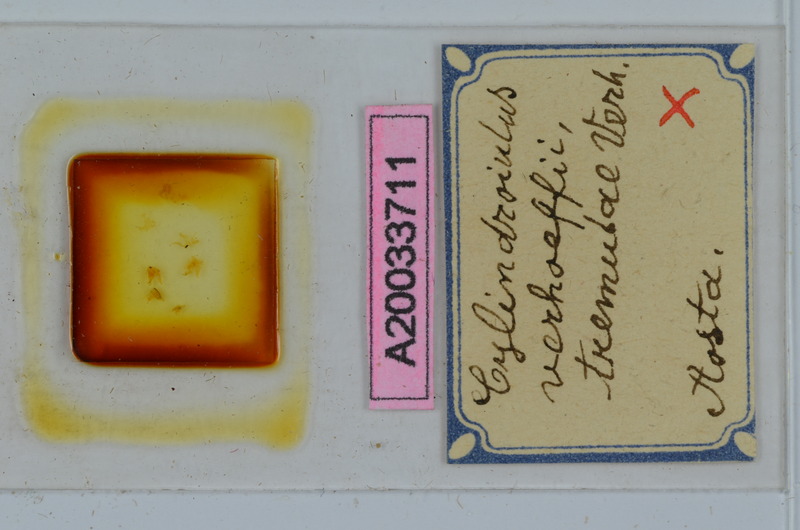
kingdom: Animalia
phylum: Arthropoda
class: Diplopoda
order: Julida
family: Julidae
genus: Cylindroiulus
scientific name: Cylindroiulus verhoeffi
